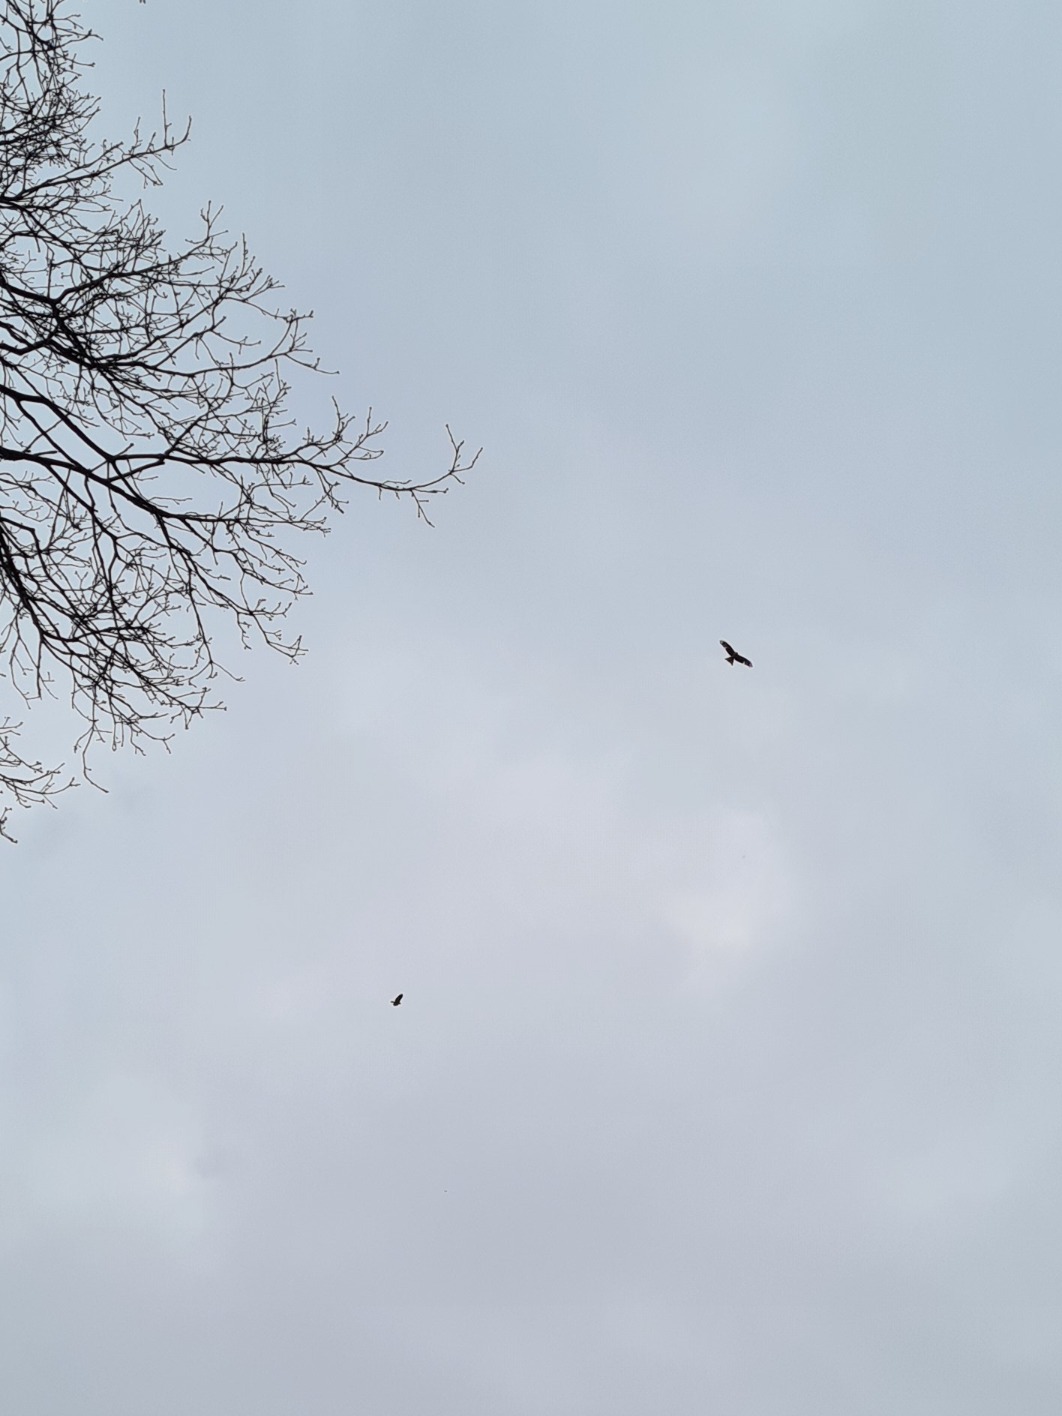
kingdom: Animalia
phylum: Chordata
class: Aves
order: Accipitriformes
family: Accipitridae
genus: Milvus
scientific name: Milvus milvus
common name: Rød glente
